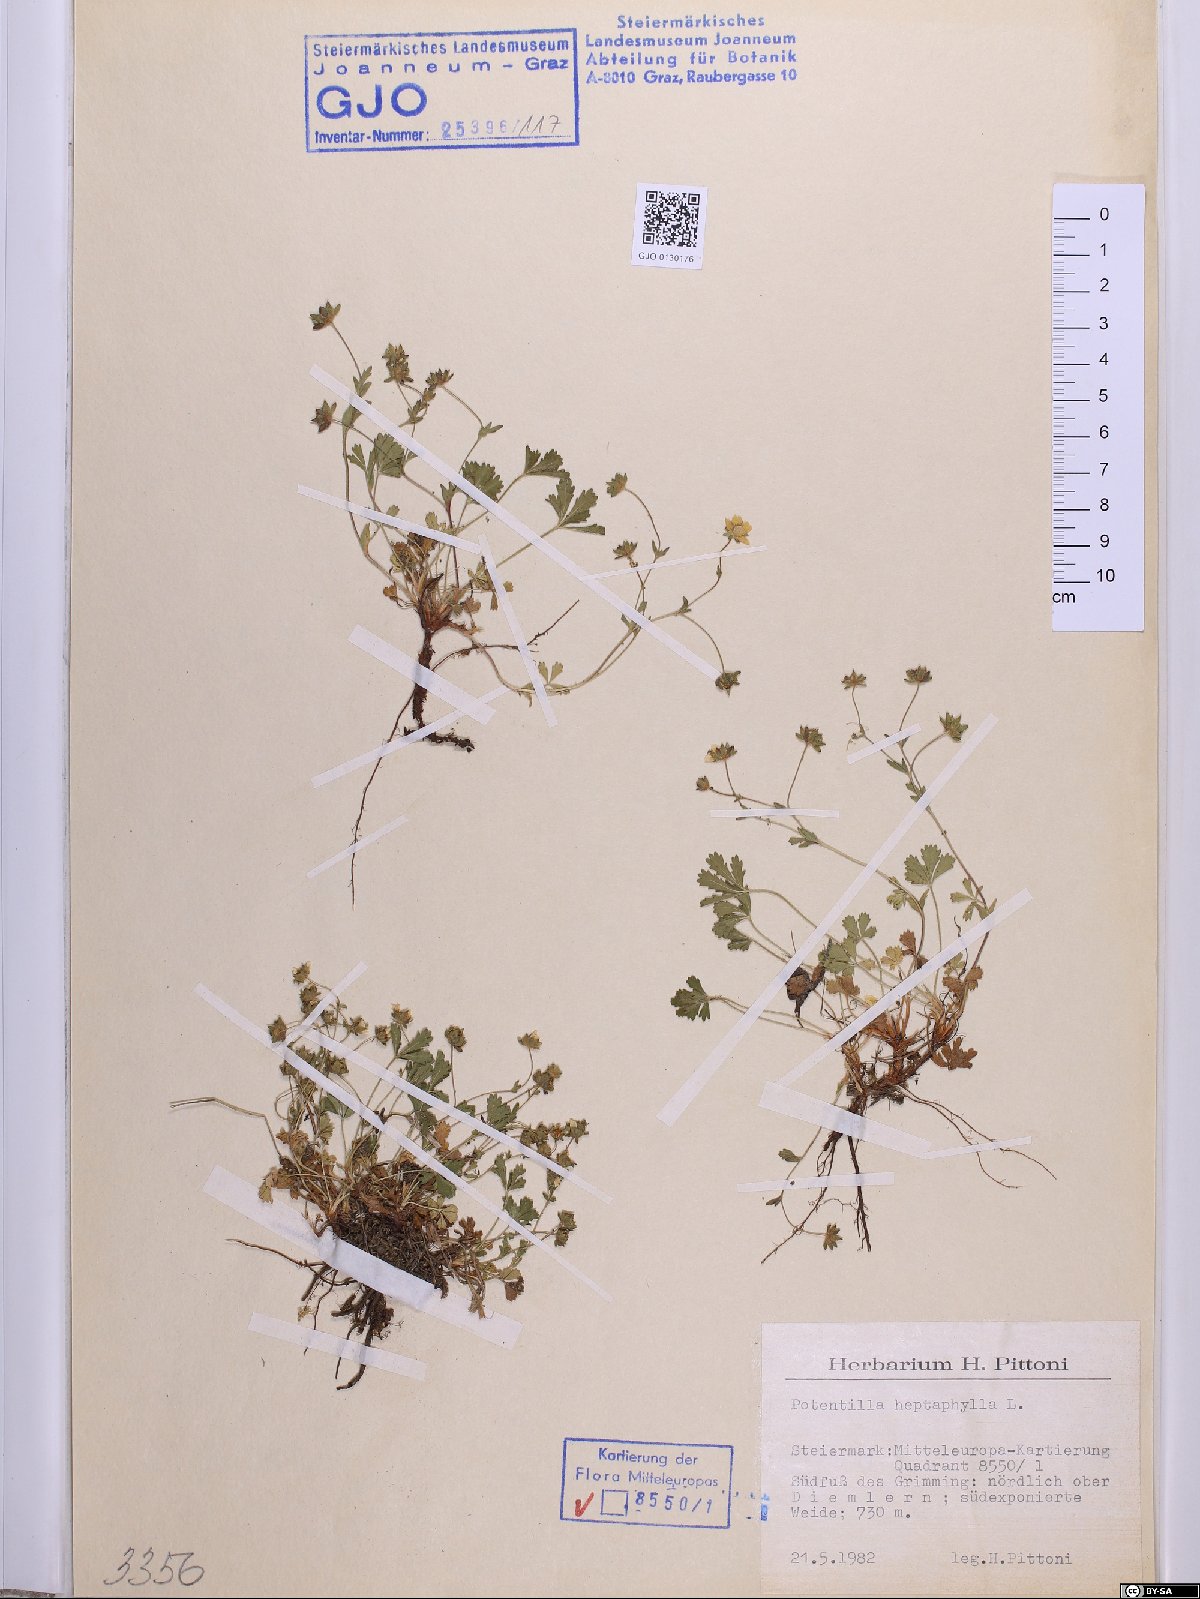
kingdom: Plantae
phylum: Tracheophyta
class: Magnoliopsida
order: Rosales
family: Rosaceae
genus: Potentilla
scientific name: Potentilla heptaphylla
